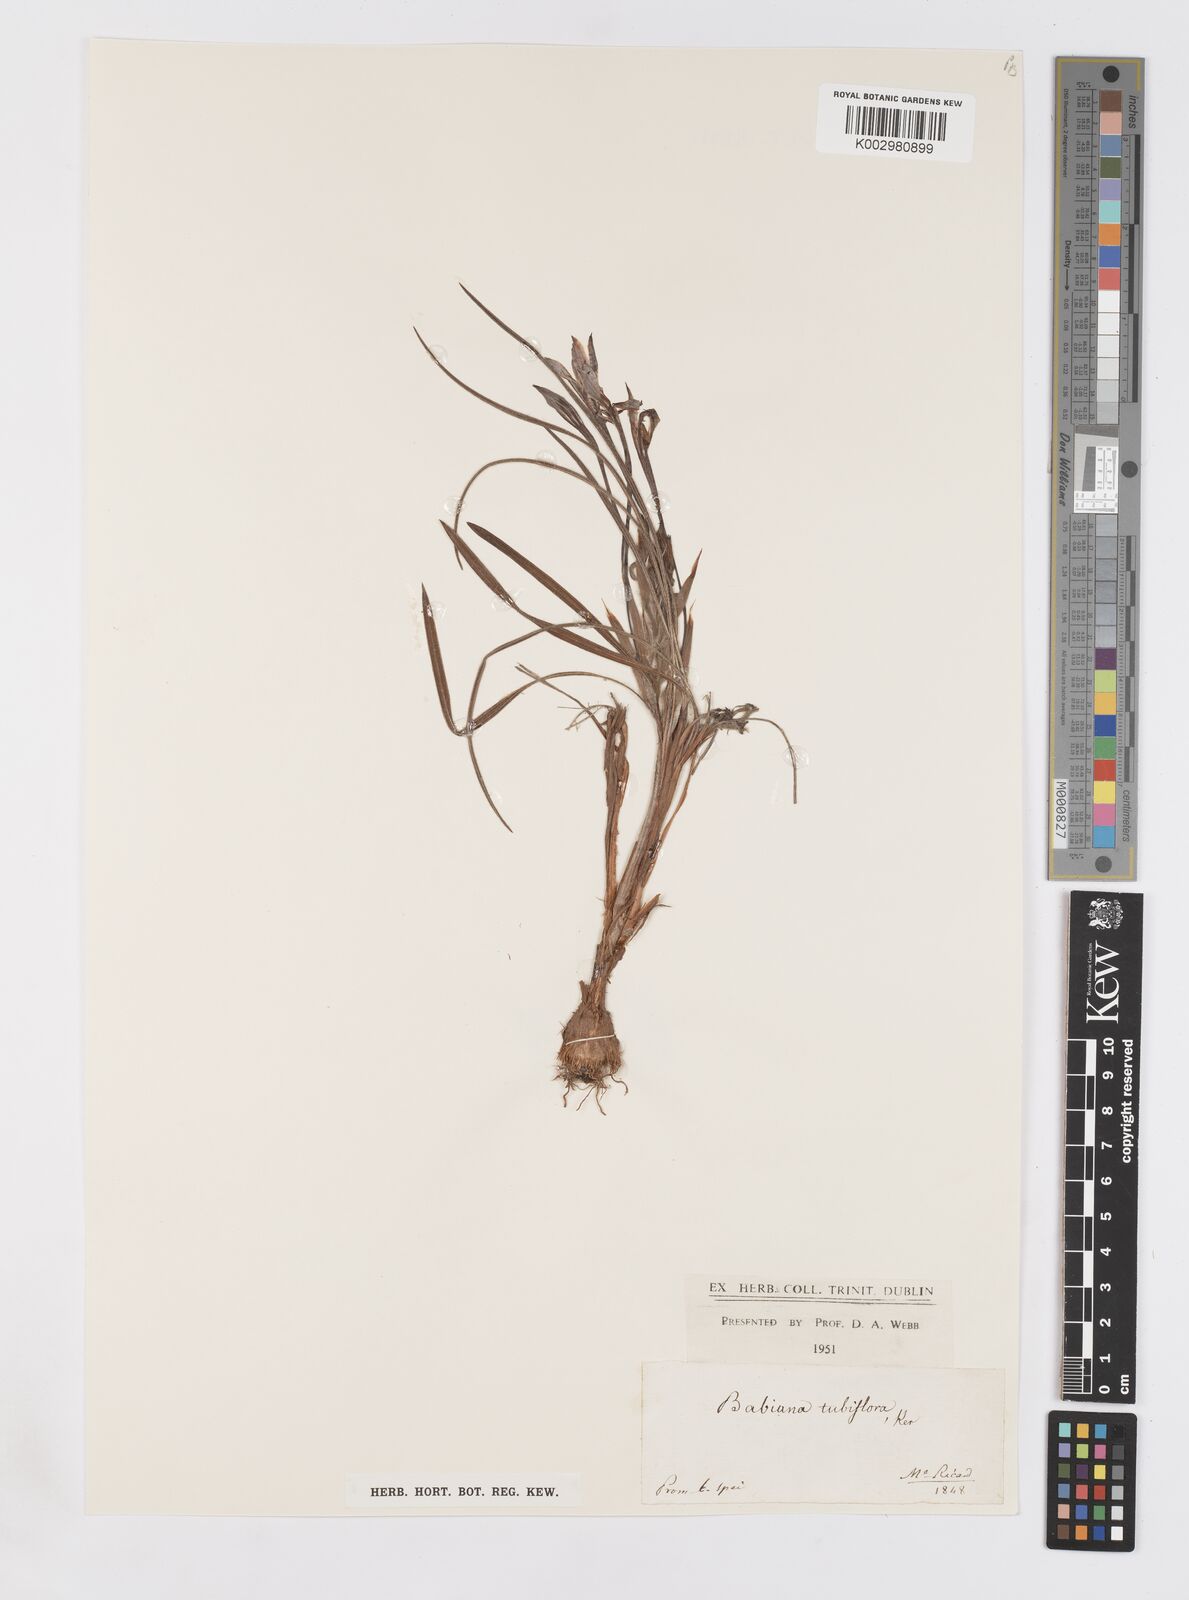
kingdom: Plantae
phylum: Tracheophyta
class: Liliopsida
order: Asparagales
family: Iridaceae
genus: Babiana
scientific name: Babiana tubiflora
